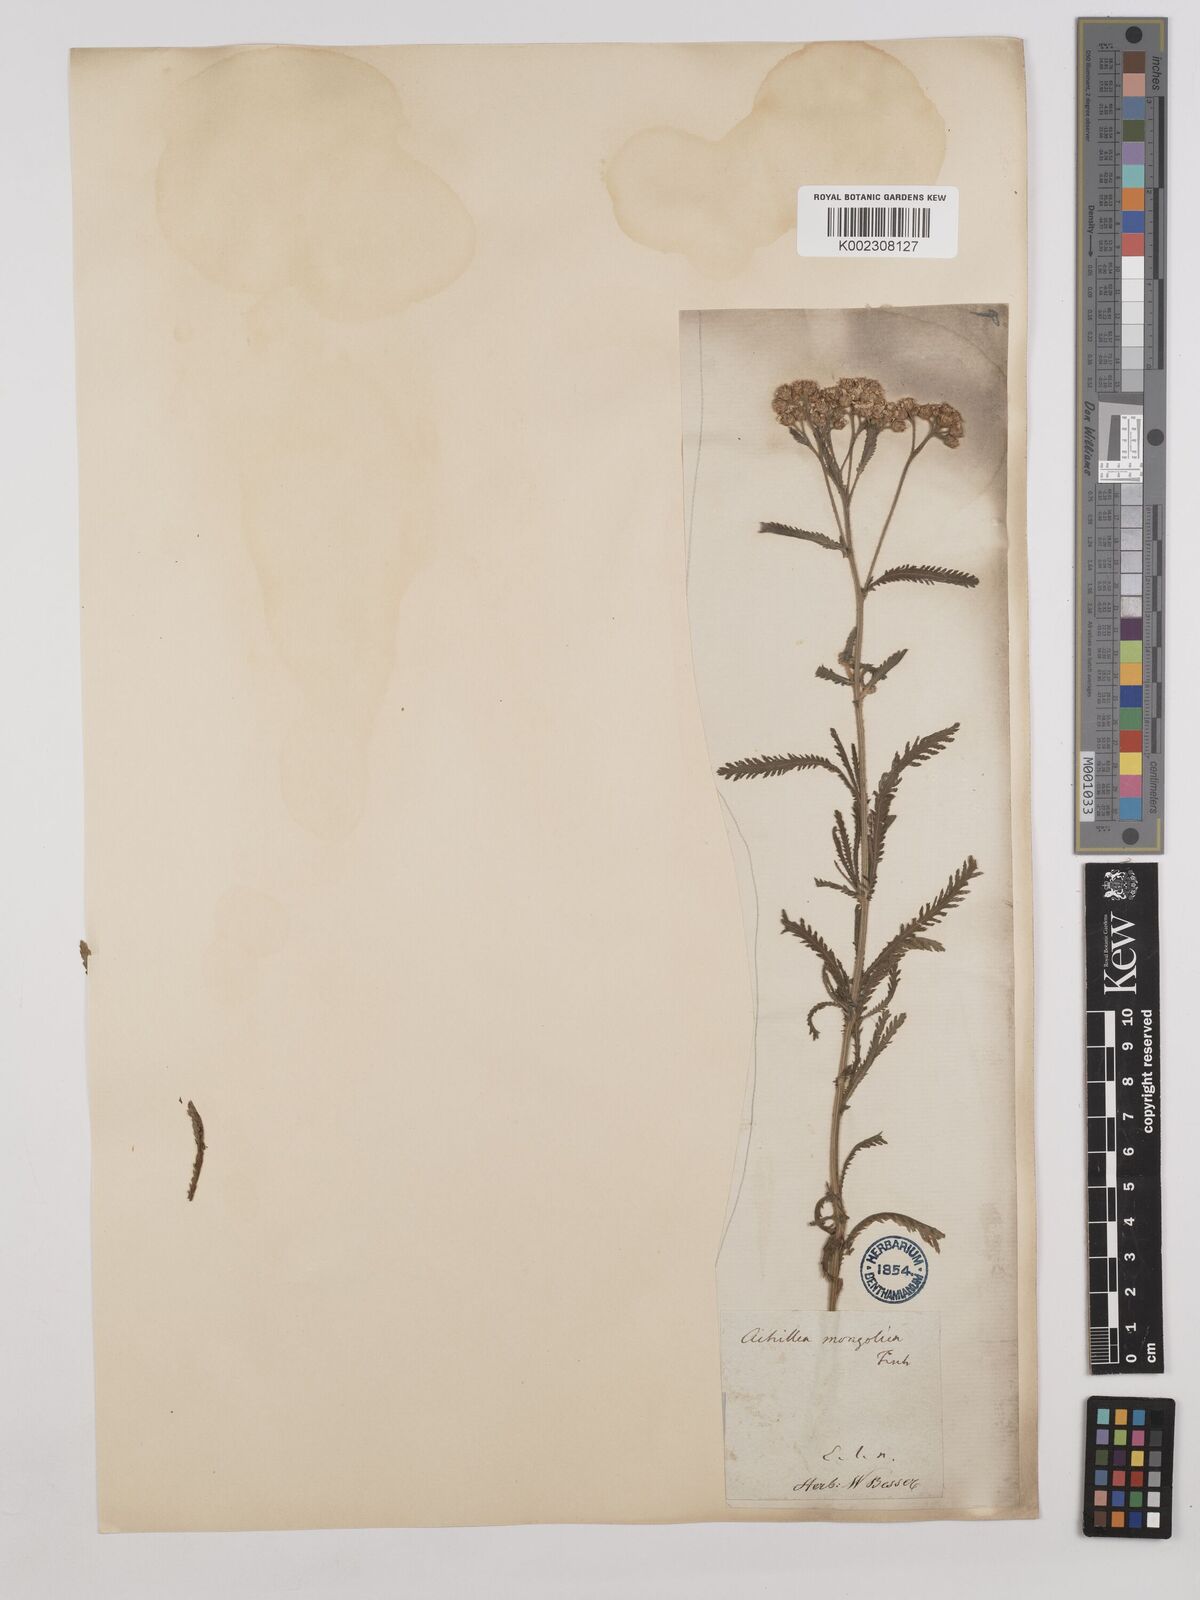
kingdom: Plantae
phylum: Tracheophyta
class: Magnoliopsida
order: Asterales
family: Asteraceae
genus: Achillea
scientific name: Achillea alpina
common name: Siberian yarrow
